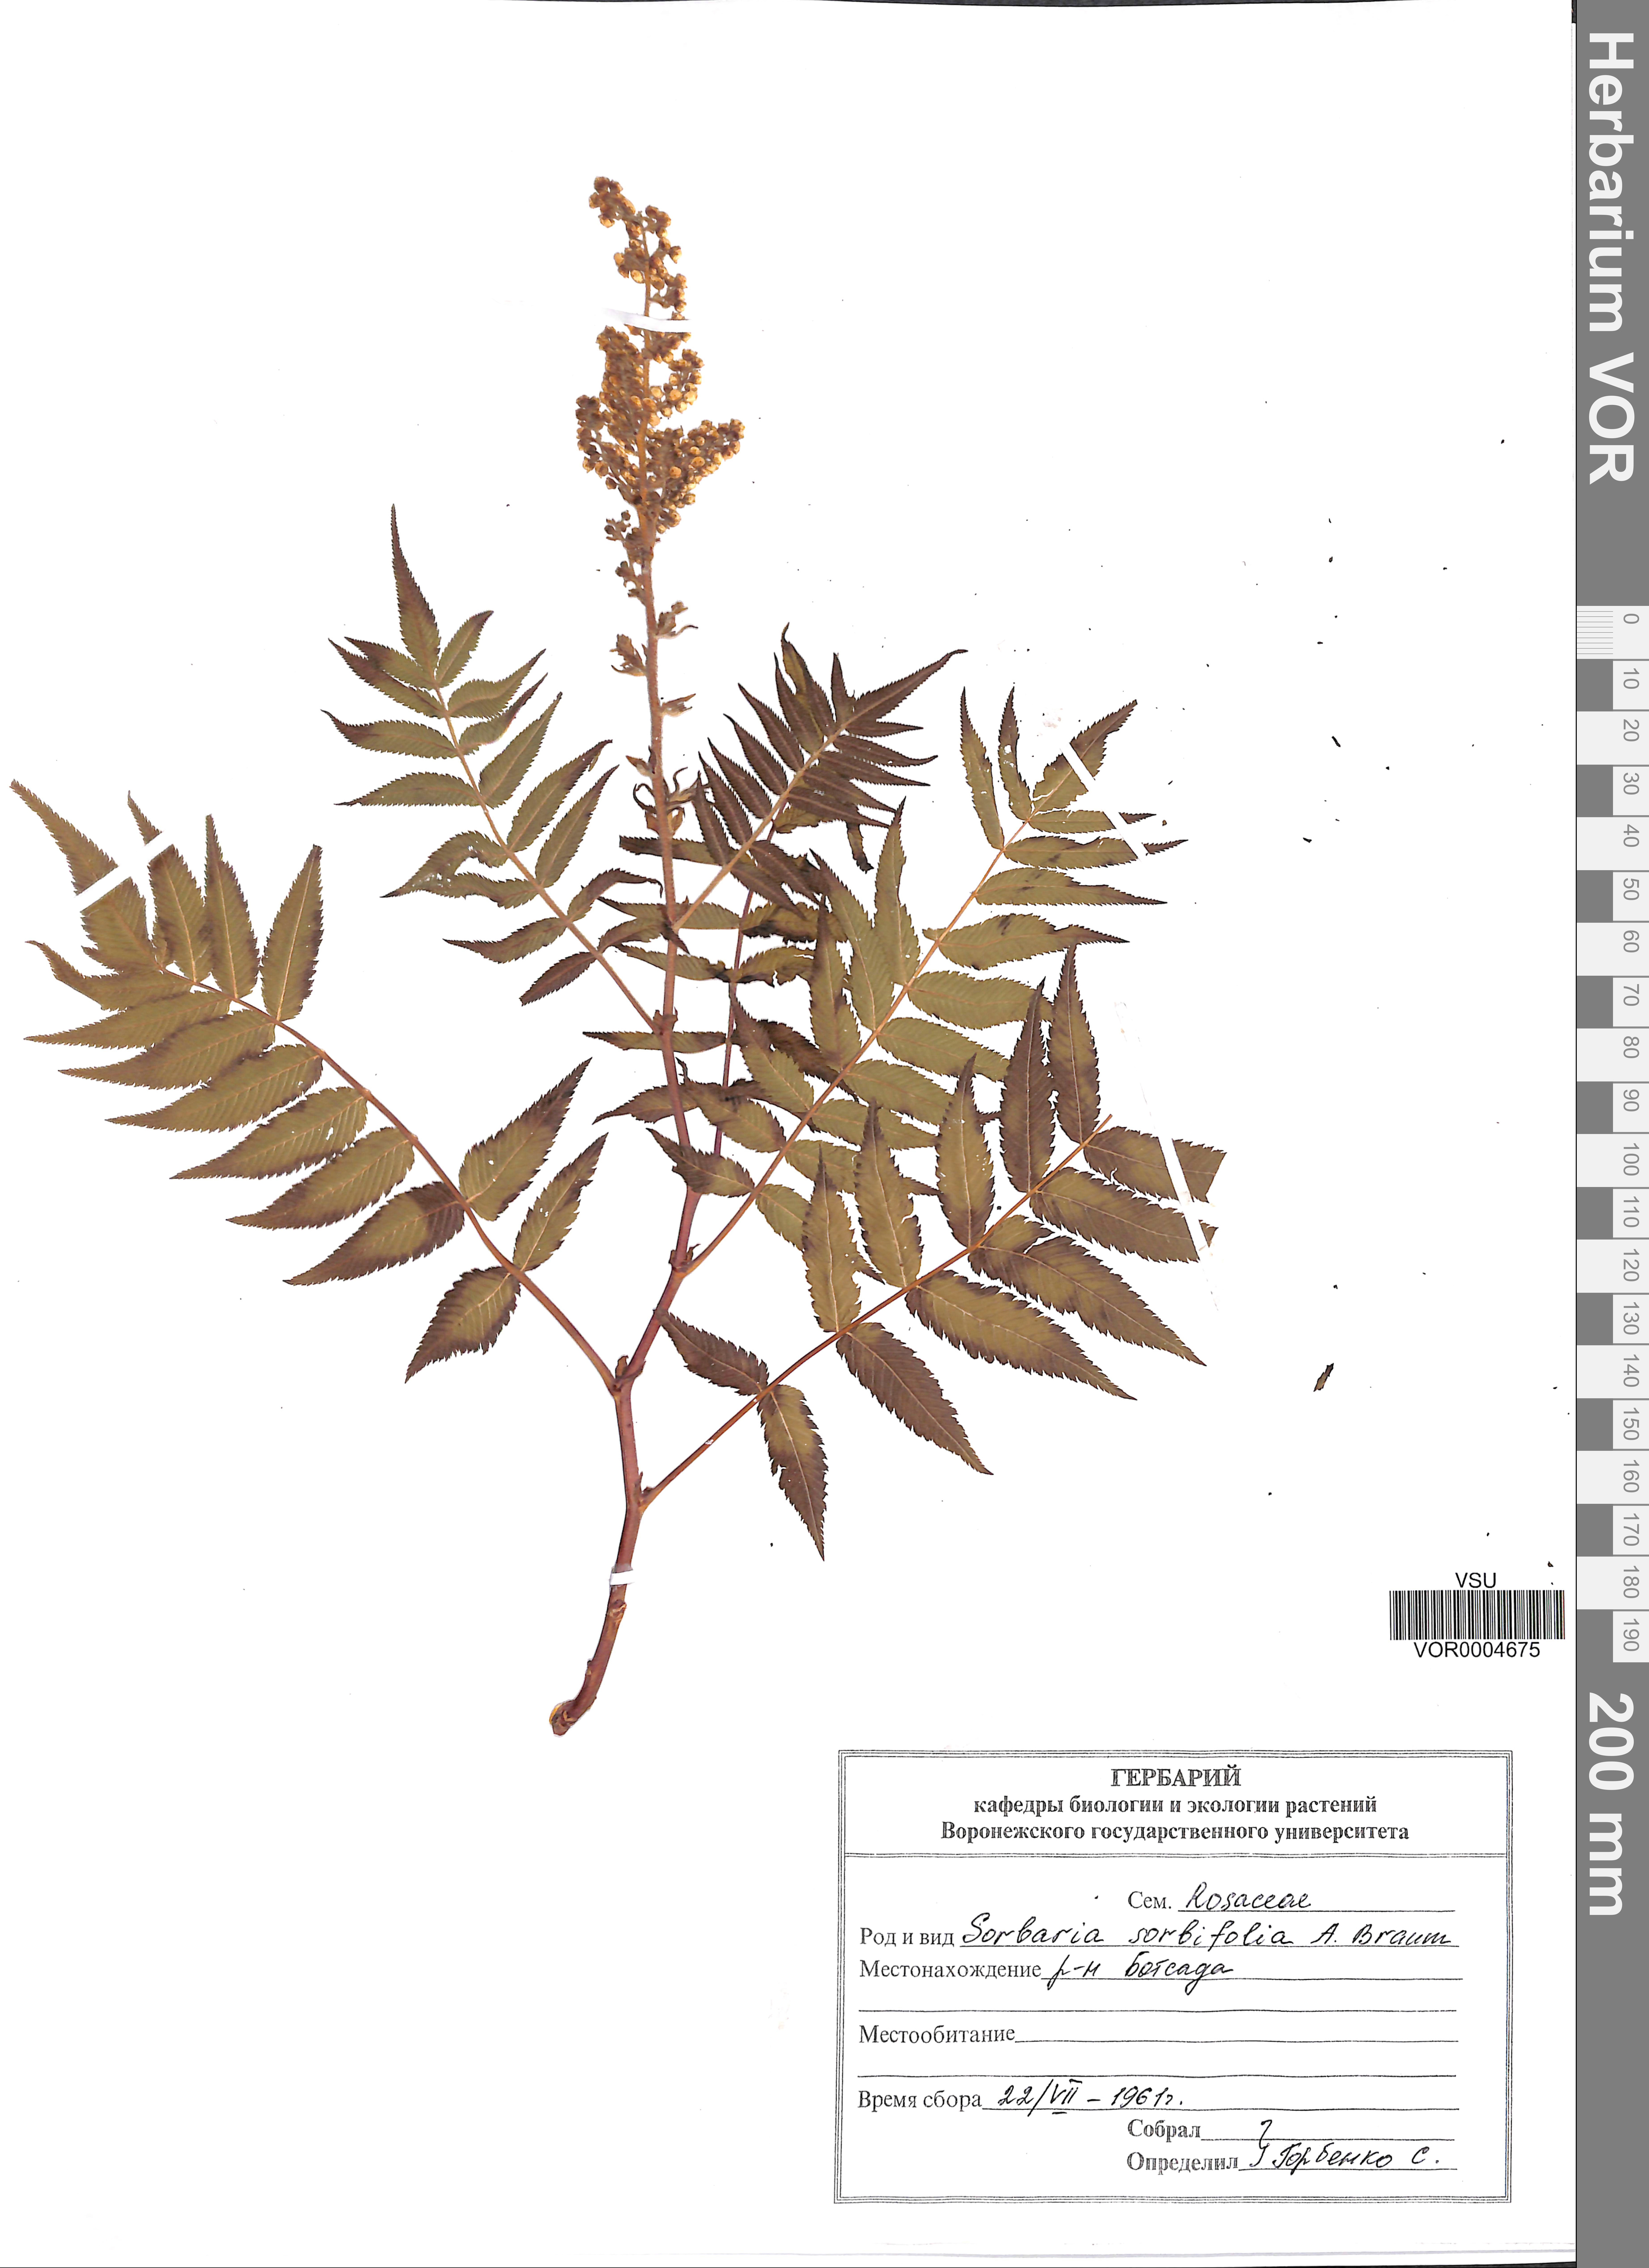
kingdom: Plantae
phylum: Tracheophyta
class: Magnoliopsida
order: Rosales
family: Rosaceae
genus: Sorbaria
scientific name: Sorbaria sorbifolia
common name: False spiraea
